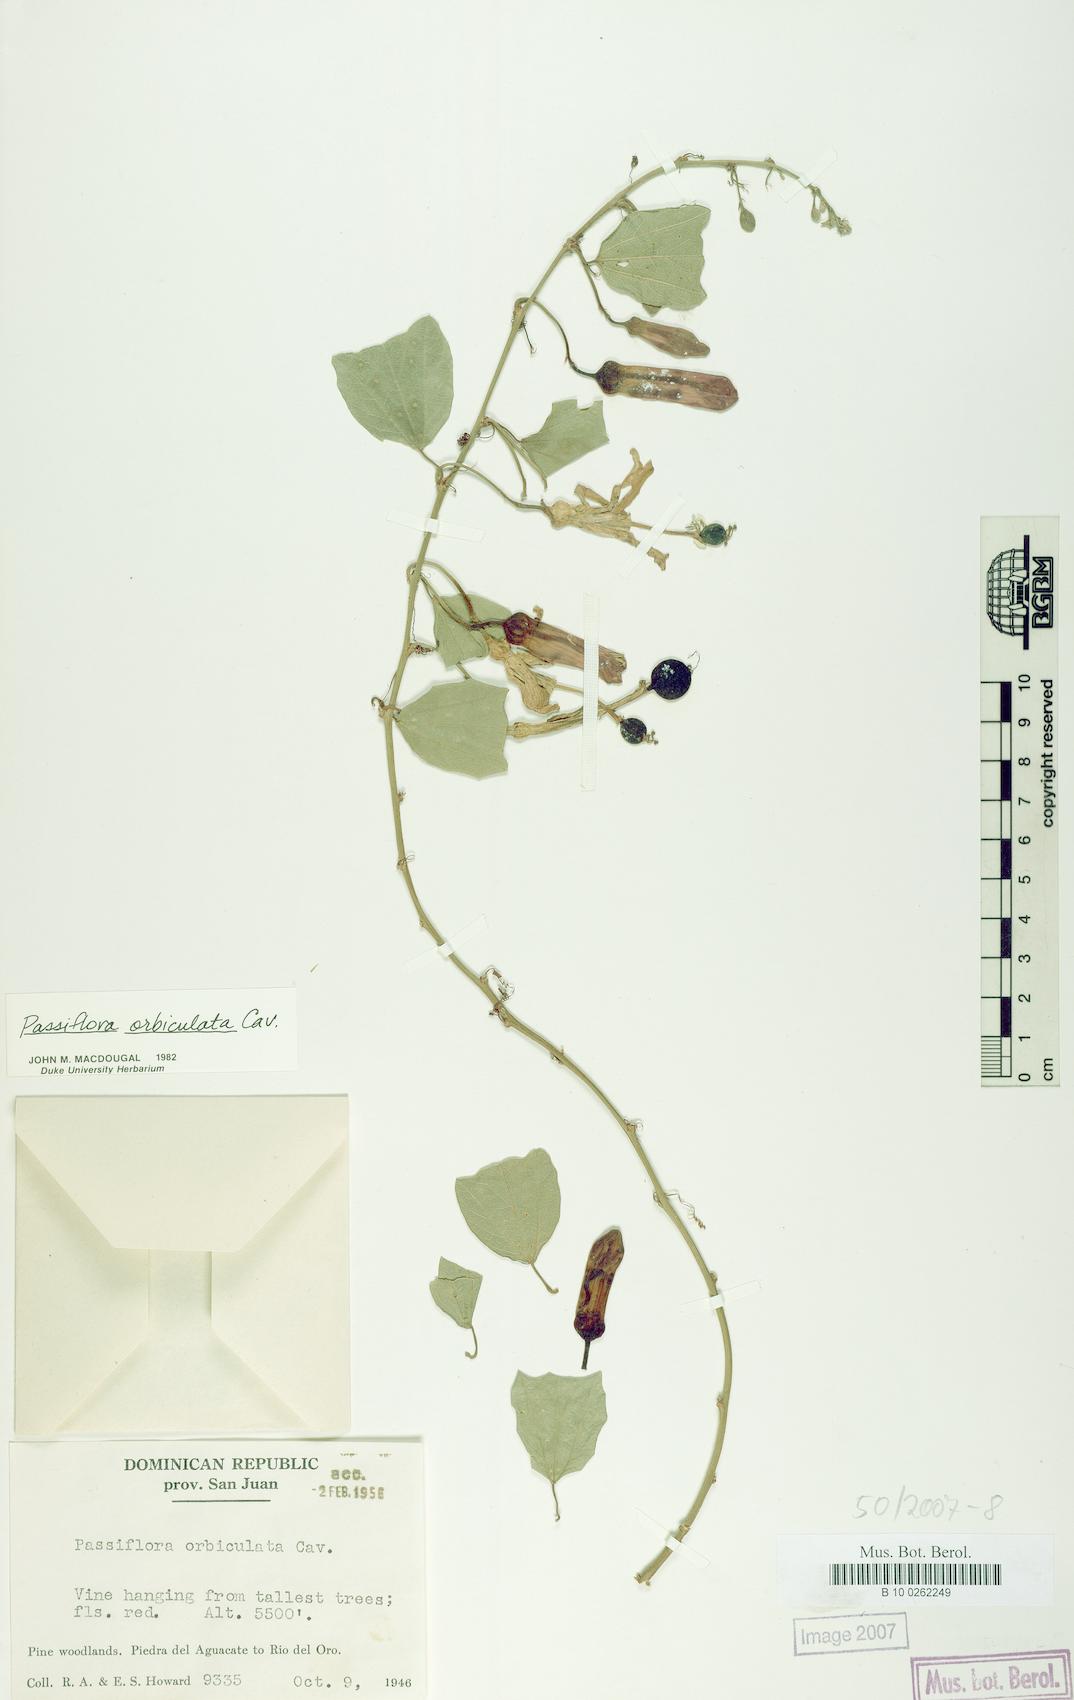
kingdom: Plantae
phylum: Tracheophyta
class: Magnoliopsida
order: Malpighiales
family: Passifloraceae
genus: Passiflora
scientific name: Passiflora orbiculata
